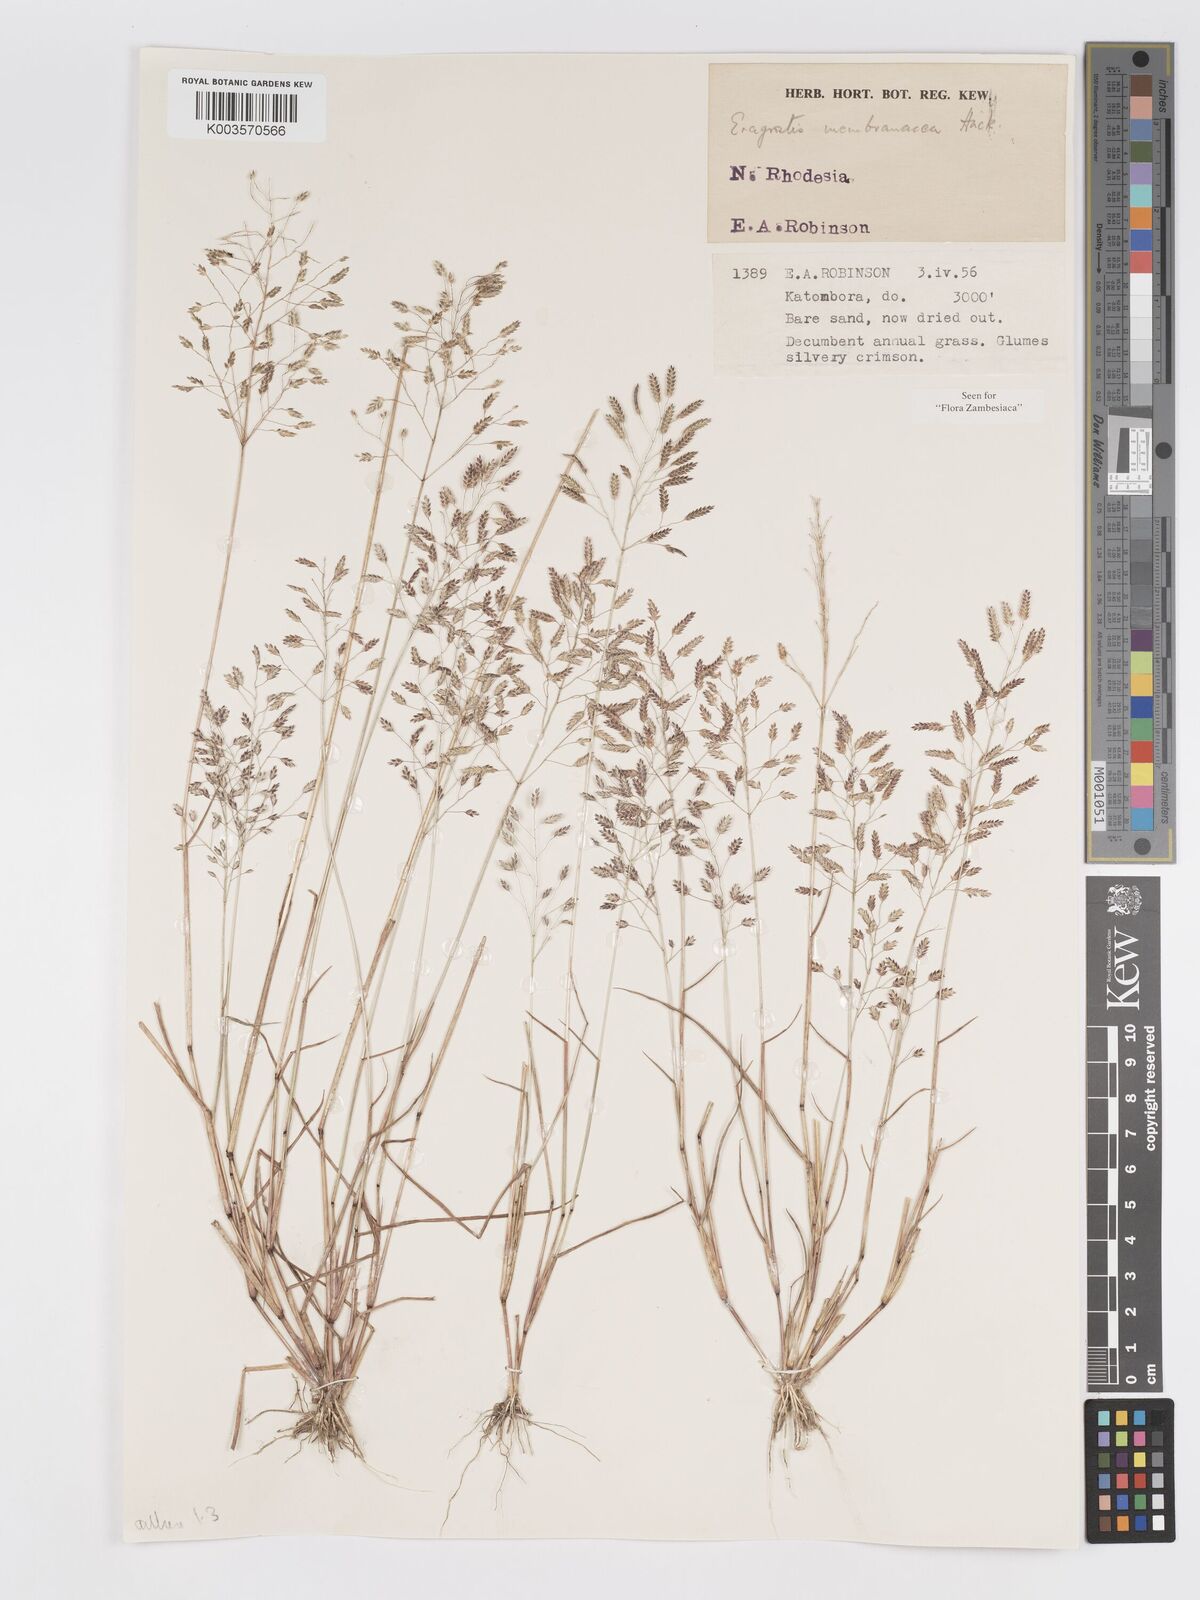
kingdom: Plantae
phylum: Tracheophyta
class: Liliopsida
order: Poales
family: Poaceae
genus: Eragrostis
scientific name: Eragrostis membranacea
